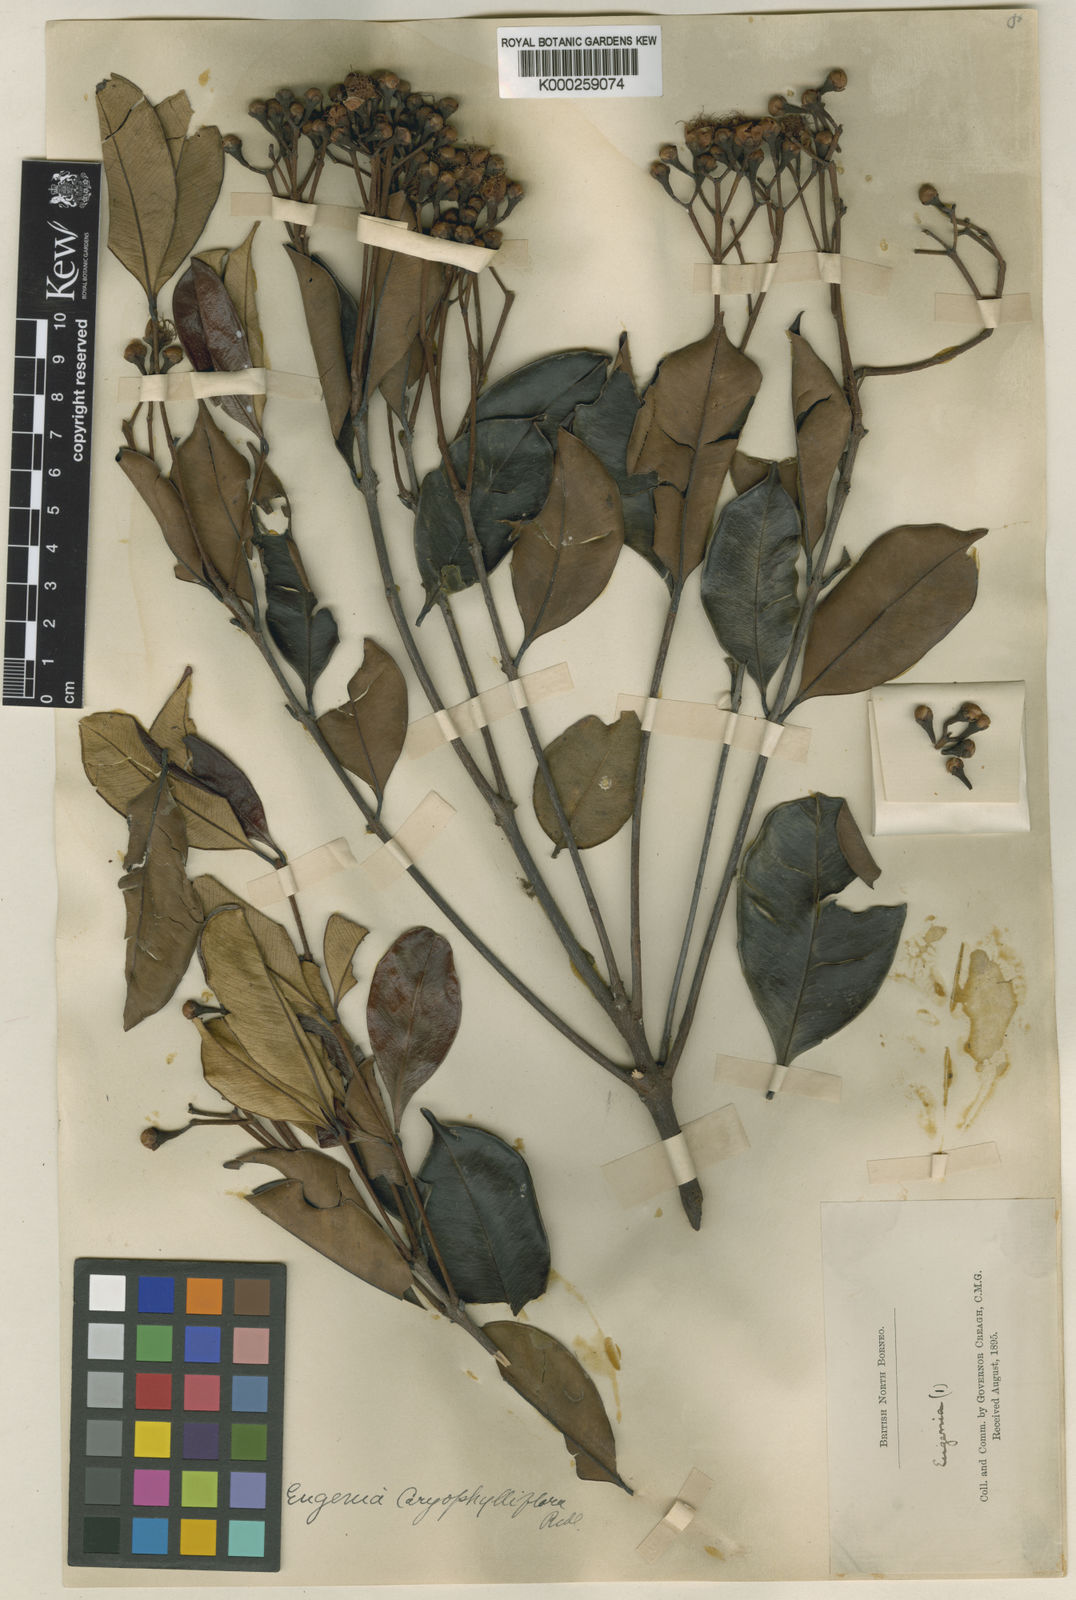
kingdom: Plantae
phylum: Tracheophyta
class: Magnoliopsida
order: Myrtales
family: Myrtaceae
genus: Syzygium
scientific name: Syzygium caryophylliflorum
